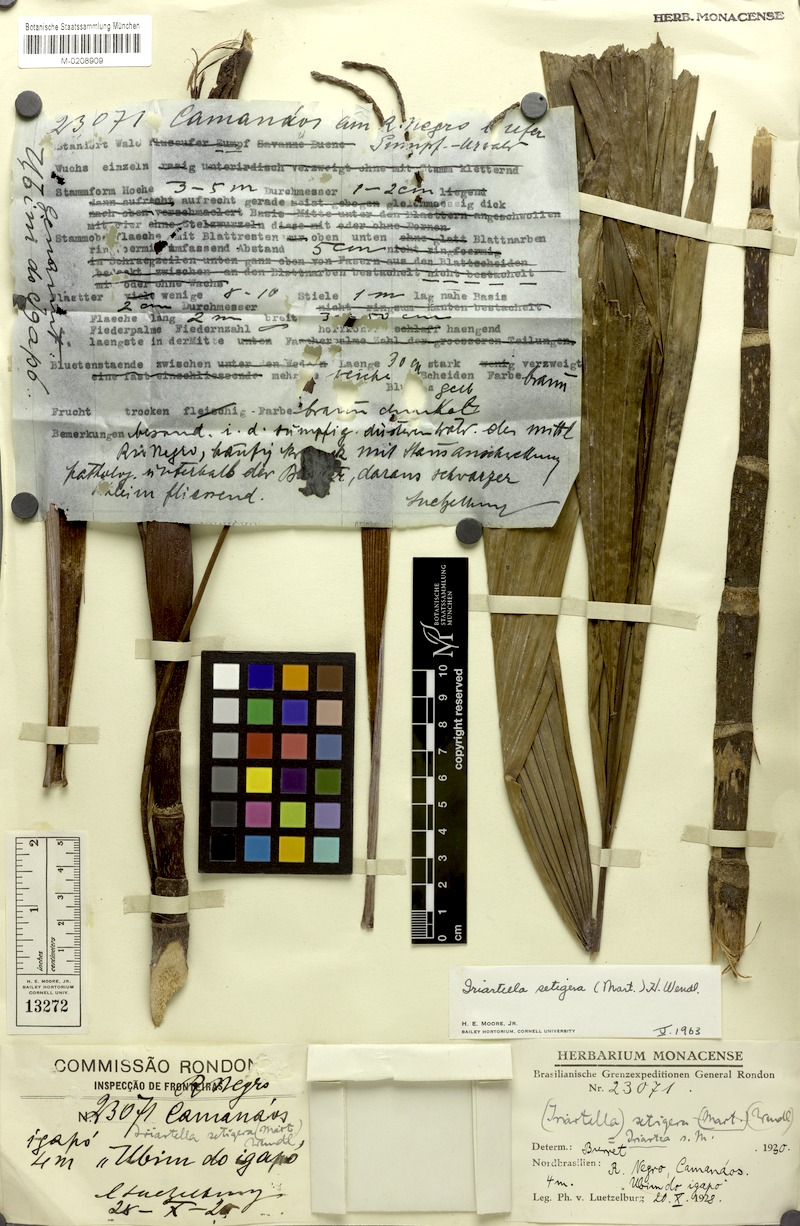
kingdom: Plantae
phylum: Tracheophyta
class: Liliopsida
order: Arecales
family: Arecaceae
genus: Iriartella
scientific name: Iriartella setigera
